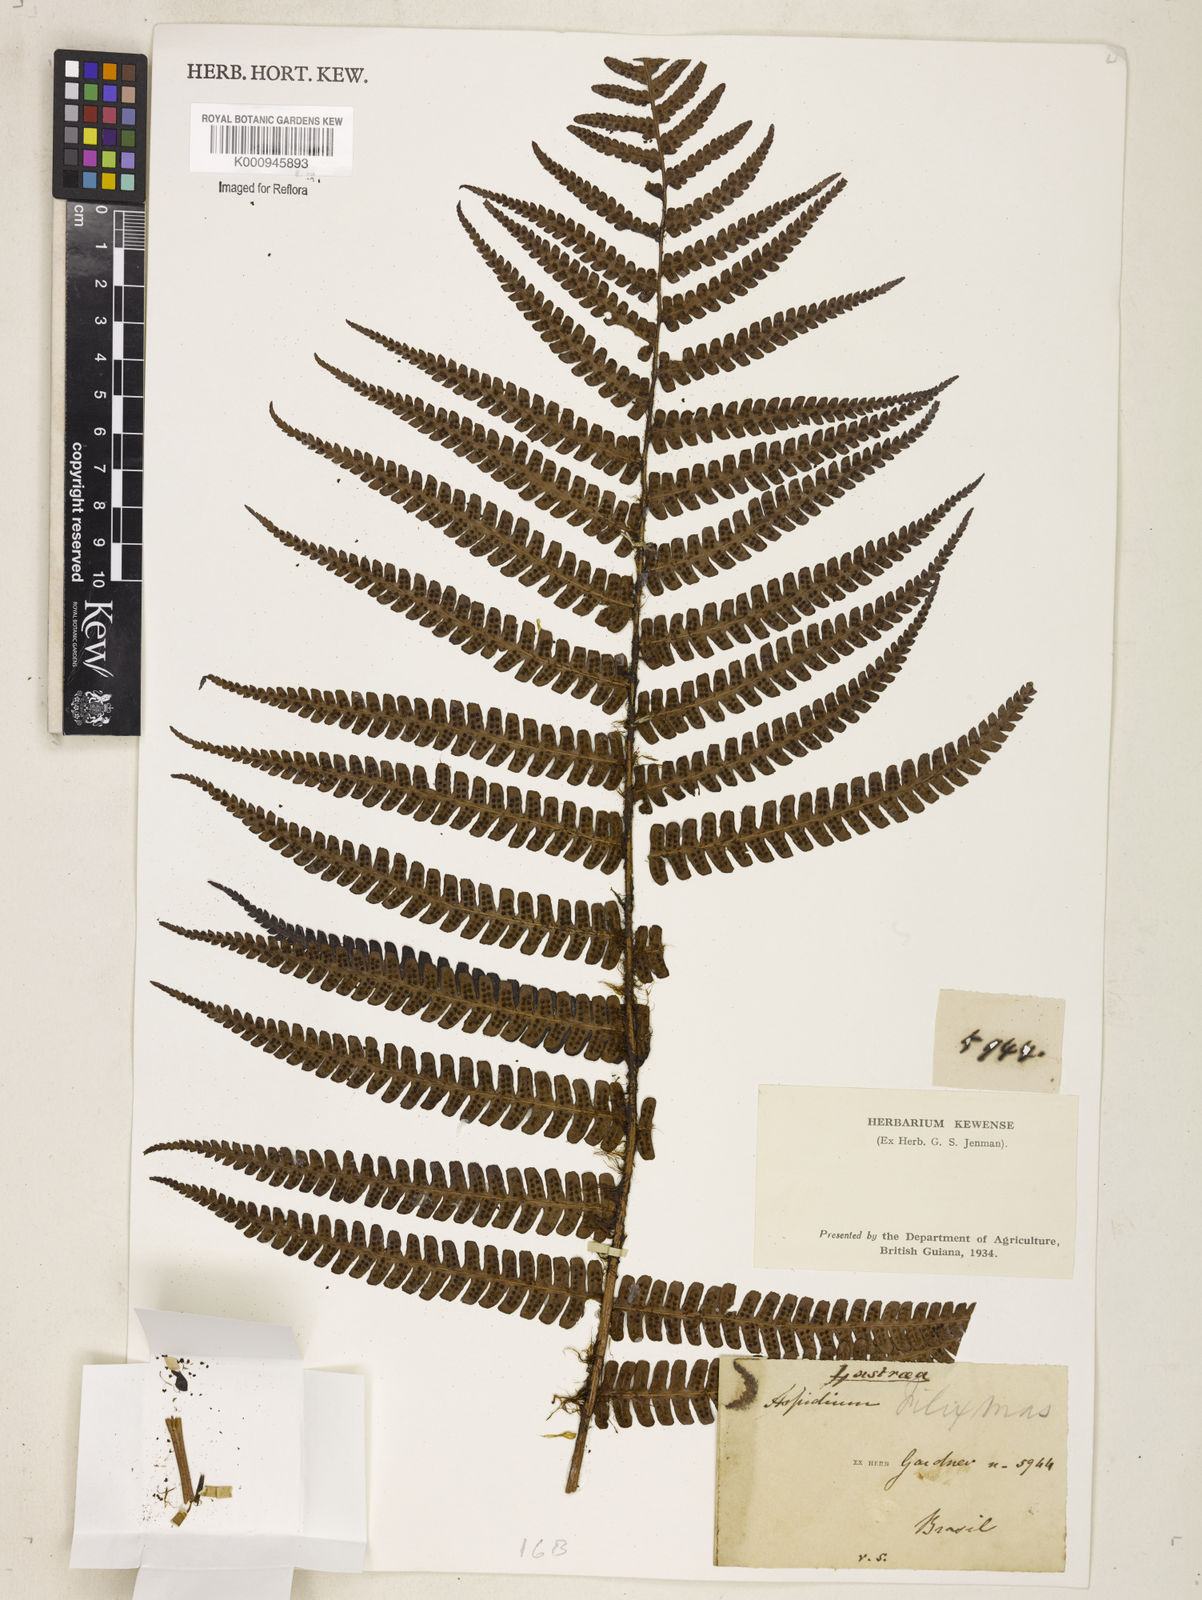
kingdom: Plantae
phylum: Tracheophyta
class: Polypodiopsida
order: Polypodiales
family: Dryopteridaceae
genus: Dryopteris
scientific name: Dryopteris
